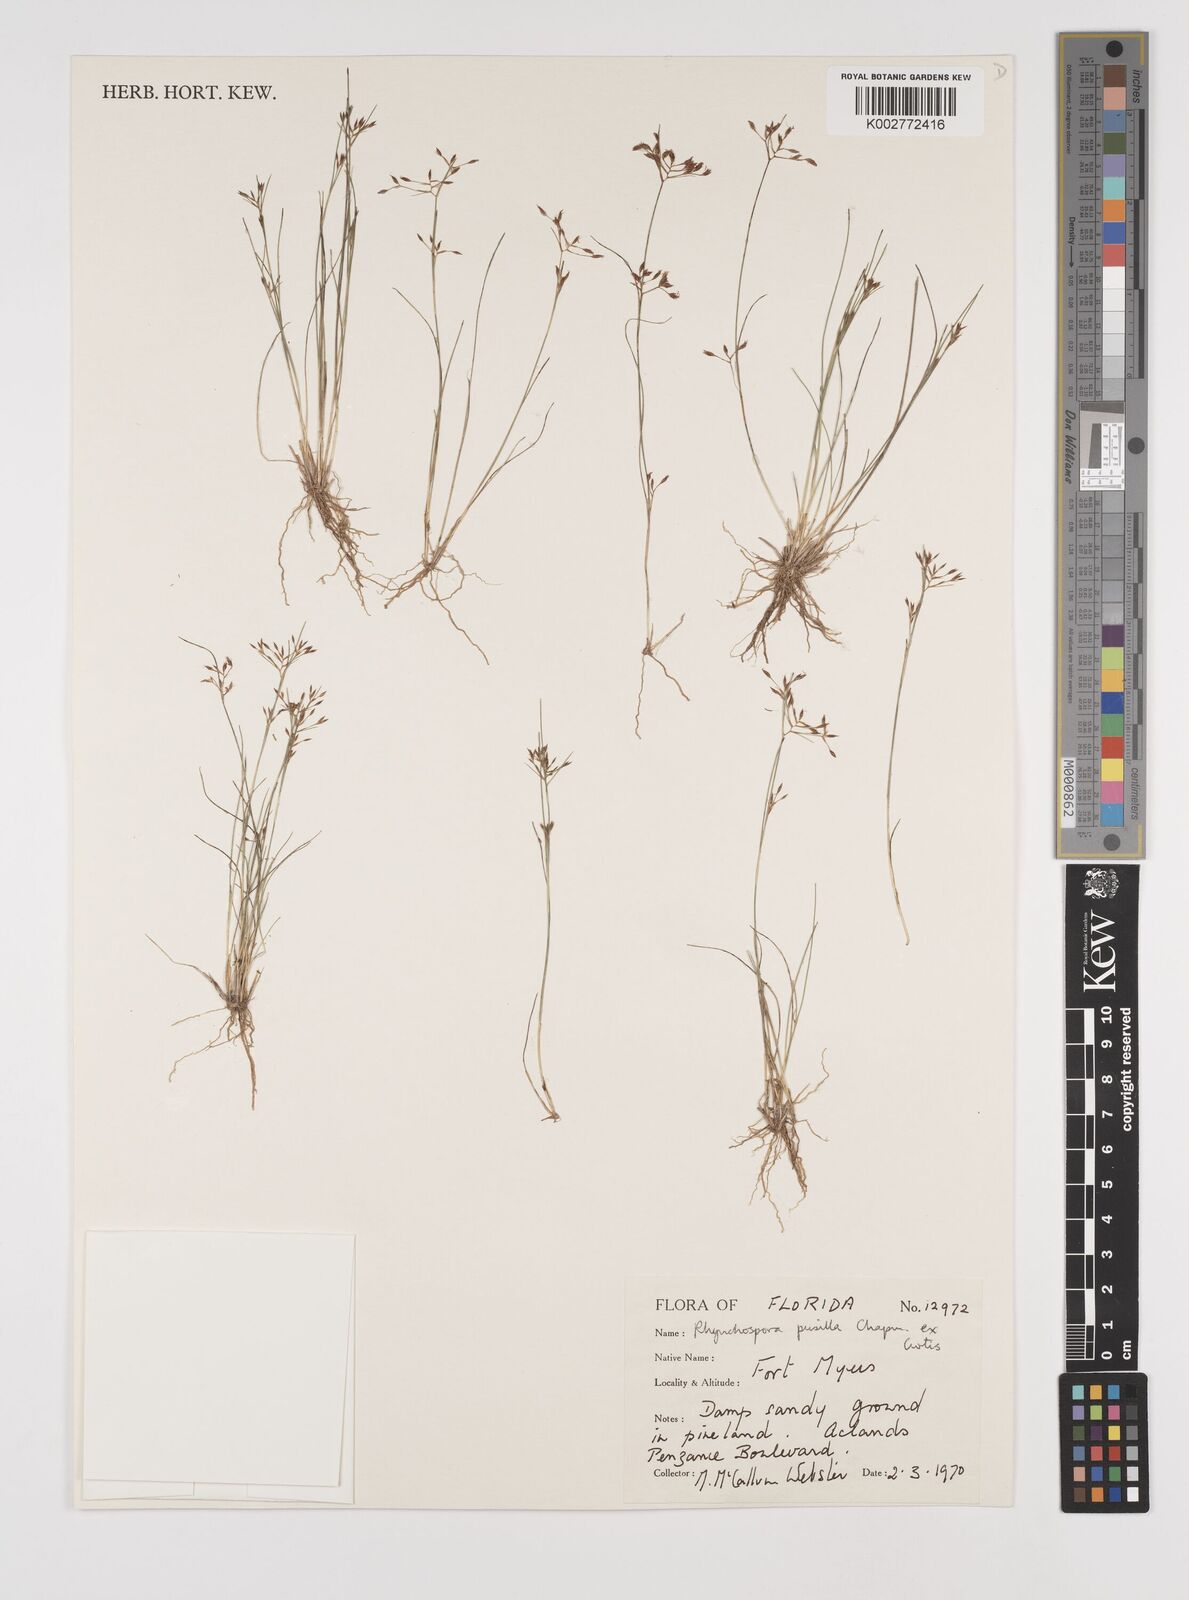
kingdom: Plantae
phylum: Tracheophyta
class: Liliopsida
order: Poales
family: Cyperaceae
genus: Rhynchospora
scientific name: Rhynchospora intermixta
